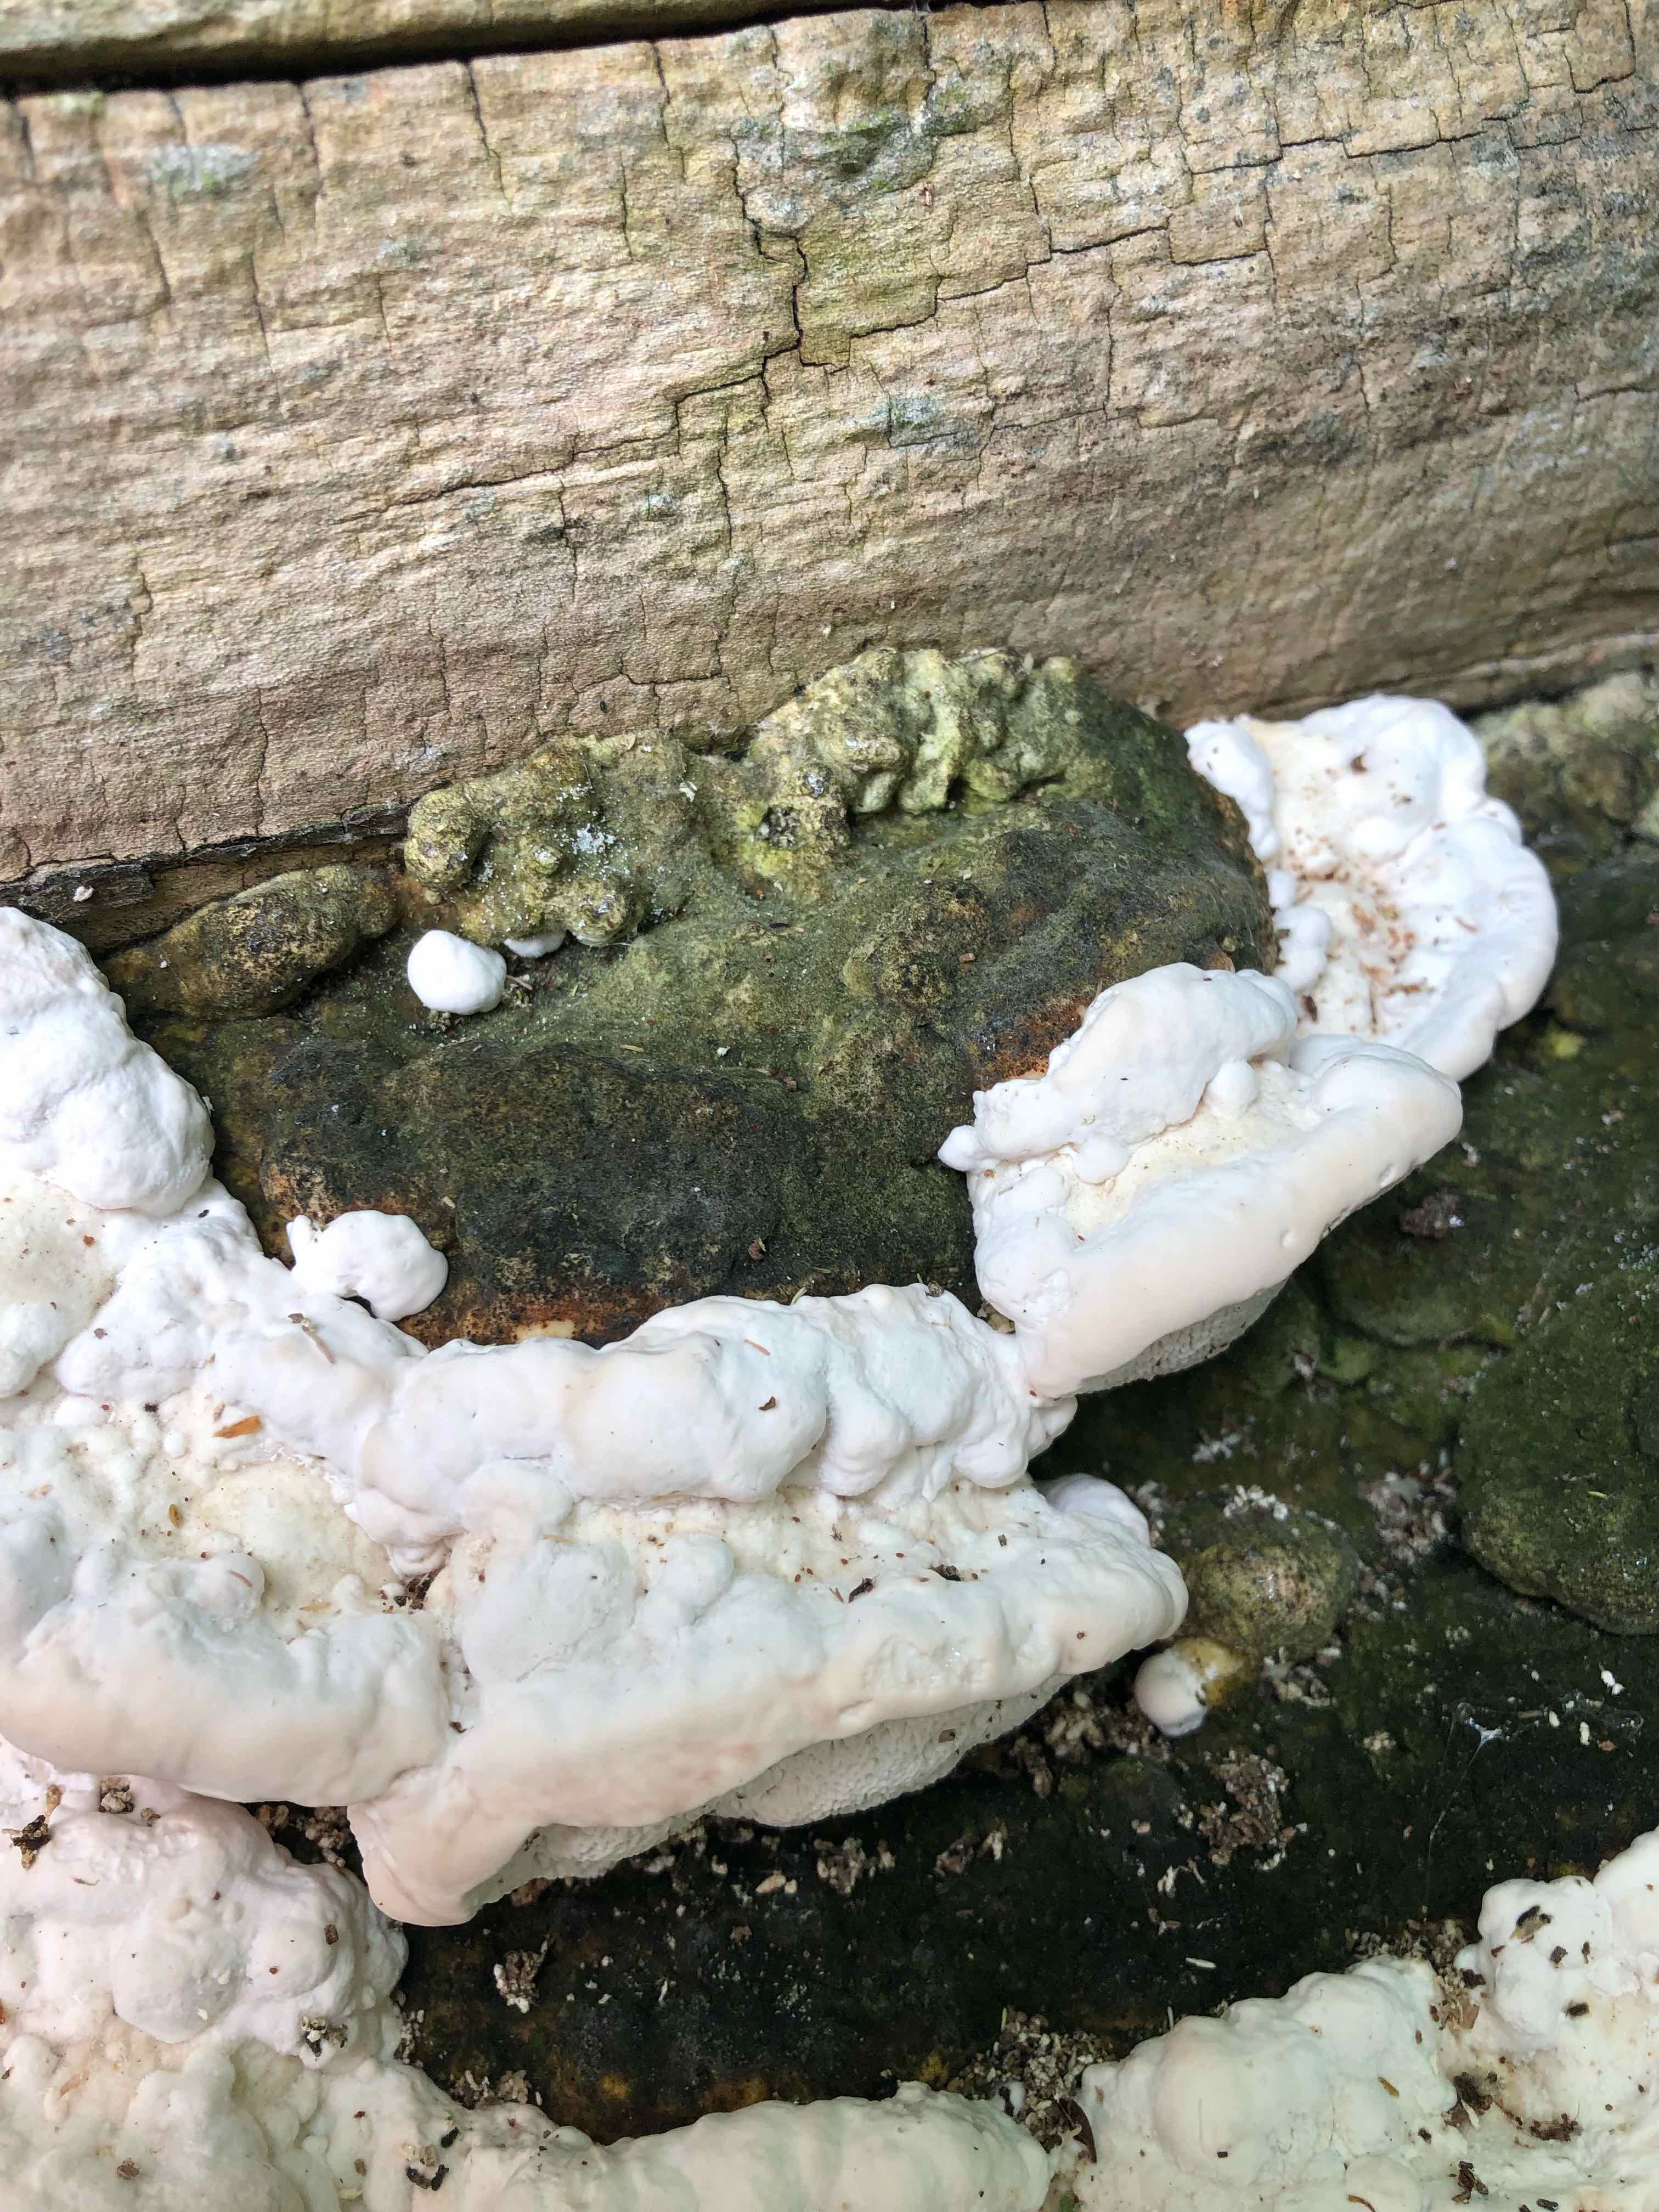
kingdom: Fungi
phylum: Basidiomycota
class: Agaricomycetes
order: Polyporales
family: Polyporaceae
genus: Trametes
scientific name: Trametes gibbosa
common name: puklet læderporesvamp
